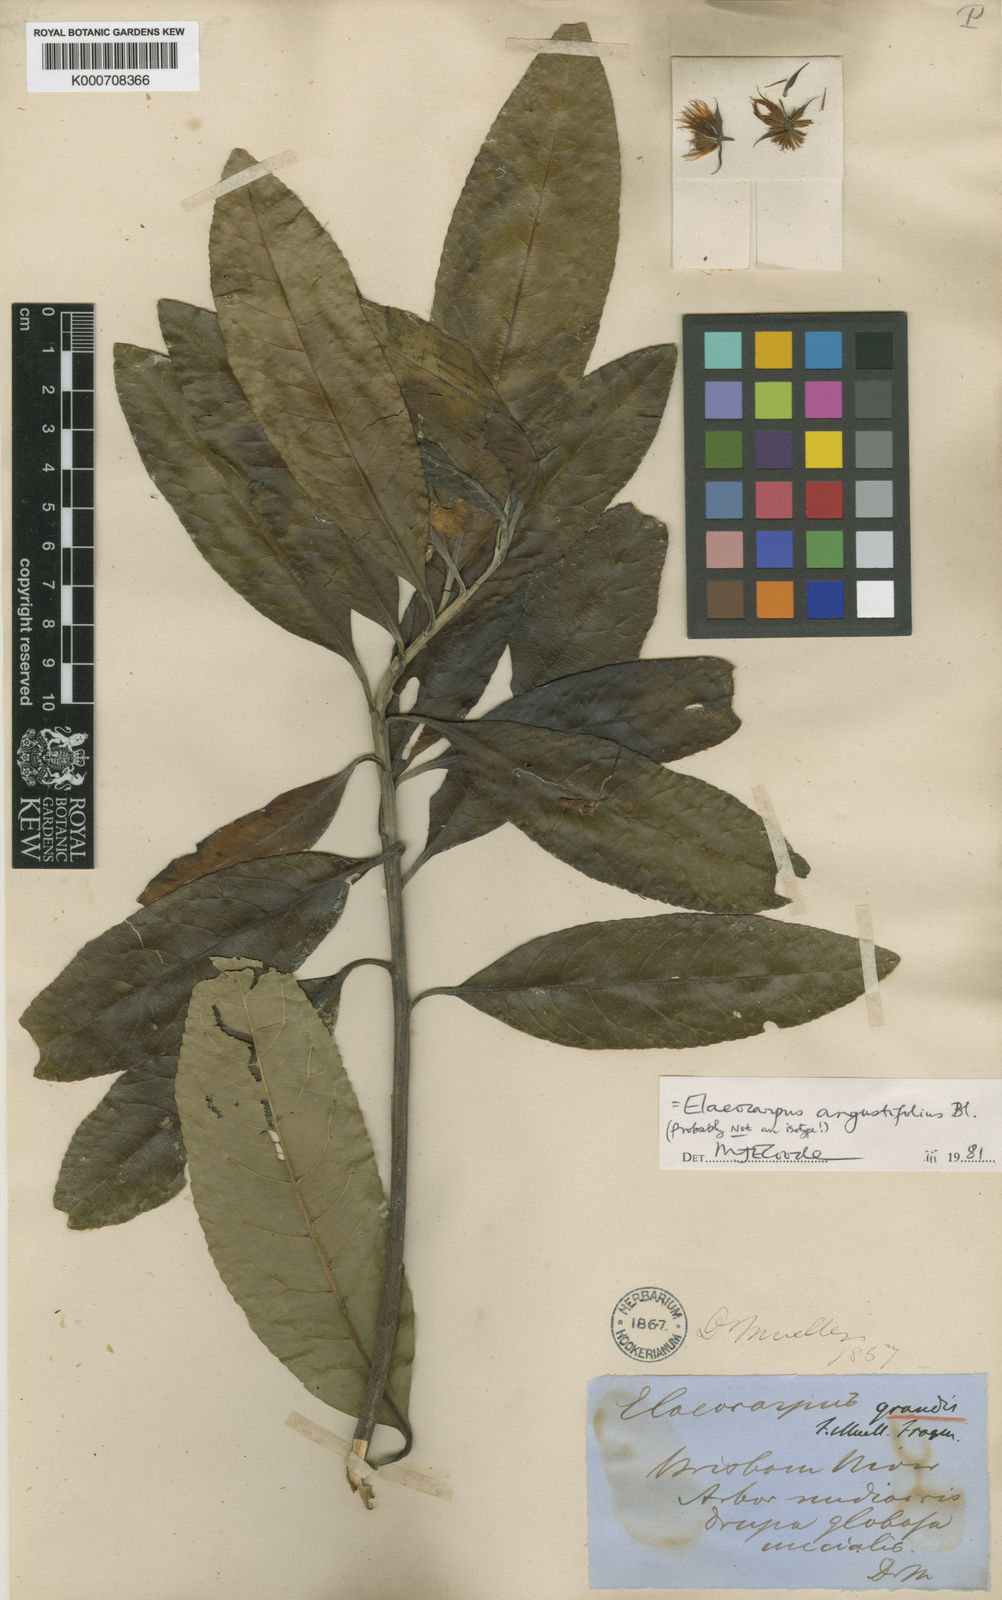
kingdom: Plantae
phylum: Tracheophyta
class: Magnoliopsida
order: Oxalidales
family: Elaeocarpaceae
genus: Elaeocarpus
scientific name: Elaeocarpus angustifolius
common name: Blue marble tree
